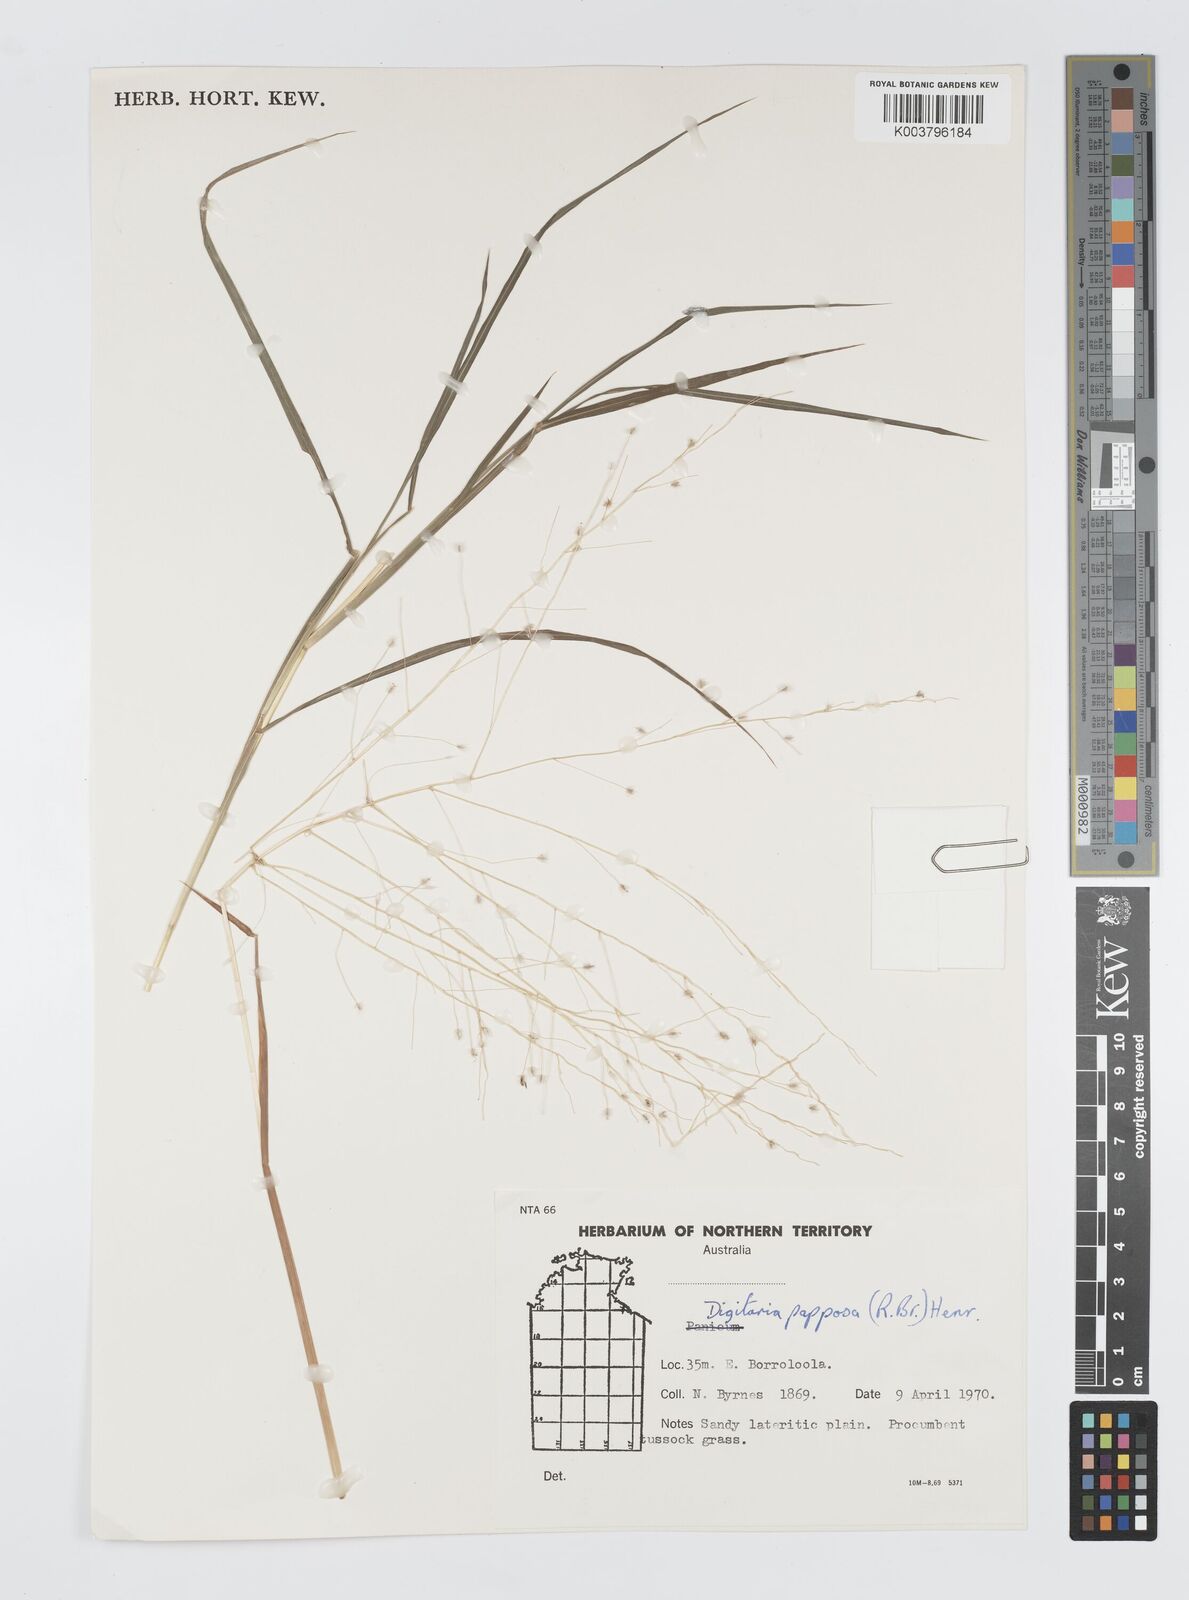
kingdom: Plantae
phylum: Tracheophyta
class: Liliopsida
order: Poales
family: Poaceae
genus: Digitaria
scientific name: Digitaria papposa
